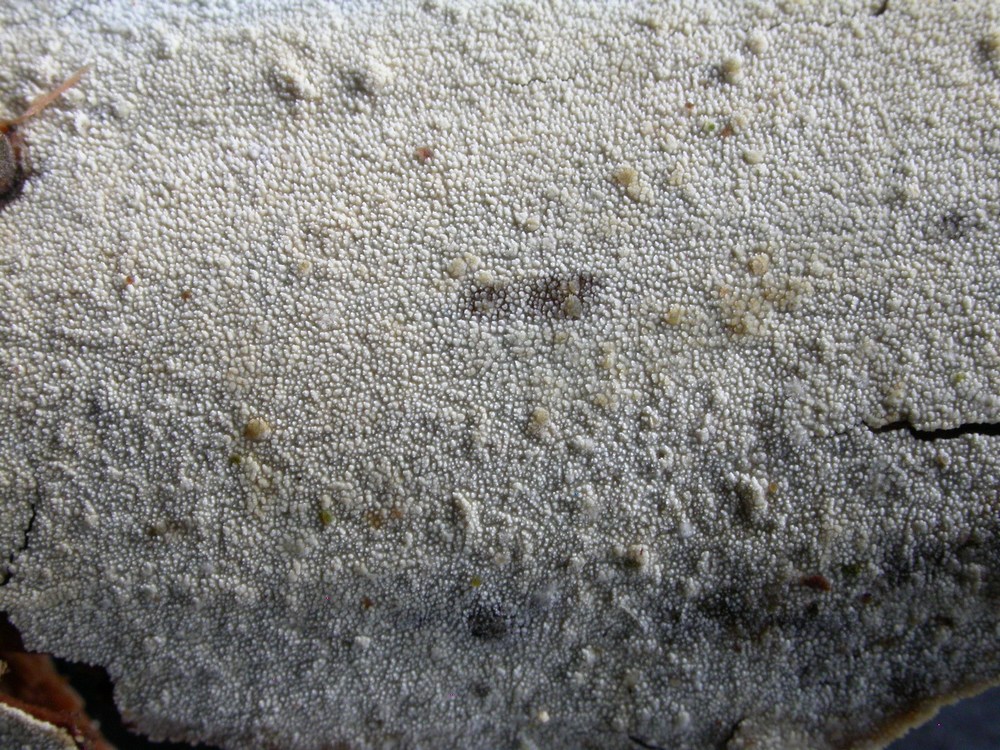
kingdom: Fungi
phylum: Basidiomycota
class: Agaricomycetes
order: Hymenochaetales
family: Schizoporaceae
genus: Xylodon
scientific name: Xylodon nesporii
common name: fintandet tandsvamp
